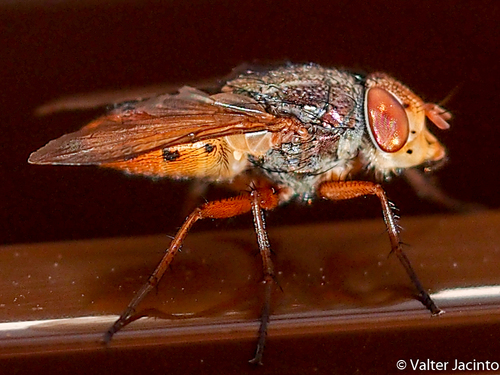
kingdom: Animalia
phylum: Arthropoda
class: Insecta
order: Diptera
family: Calliphoridae
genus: Rhyncomya
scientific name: Rhyncomya columbina
